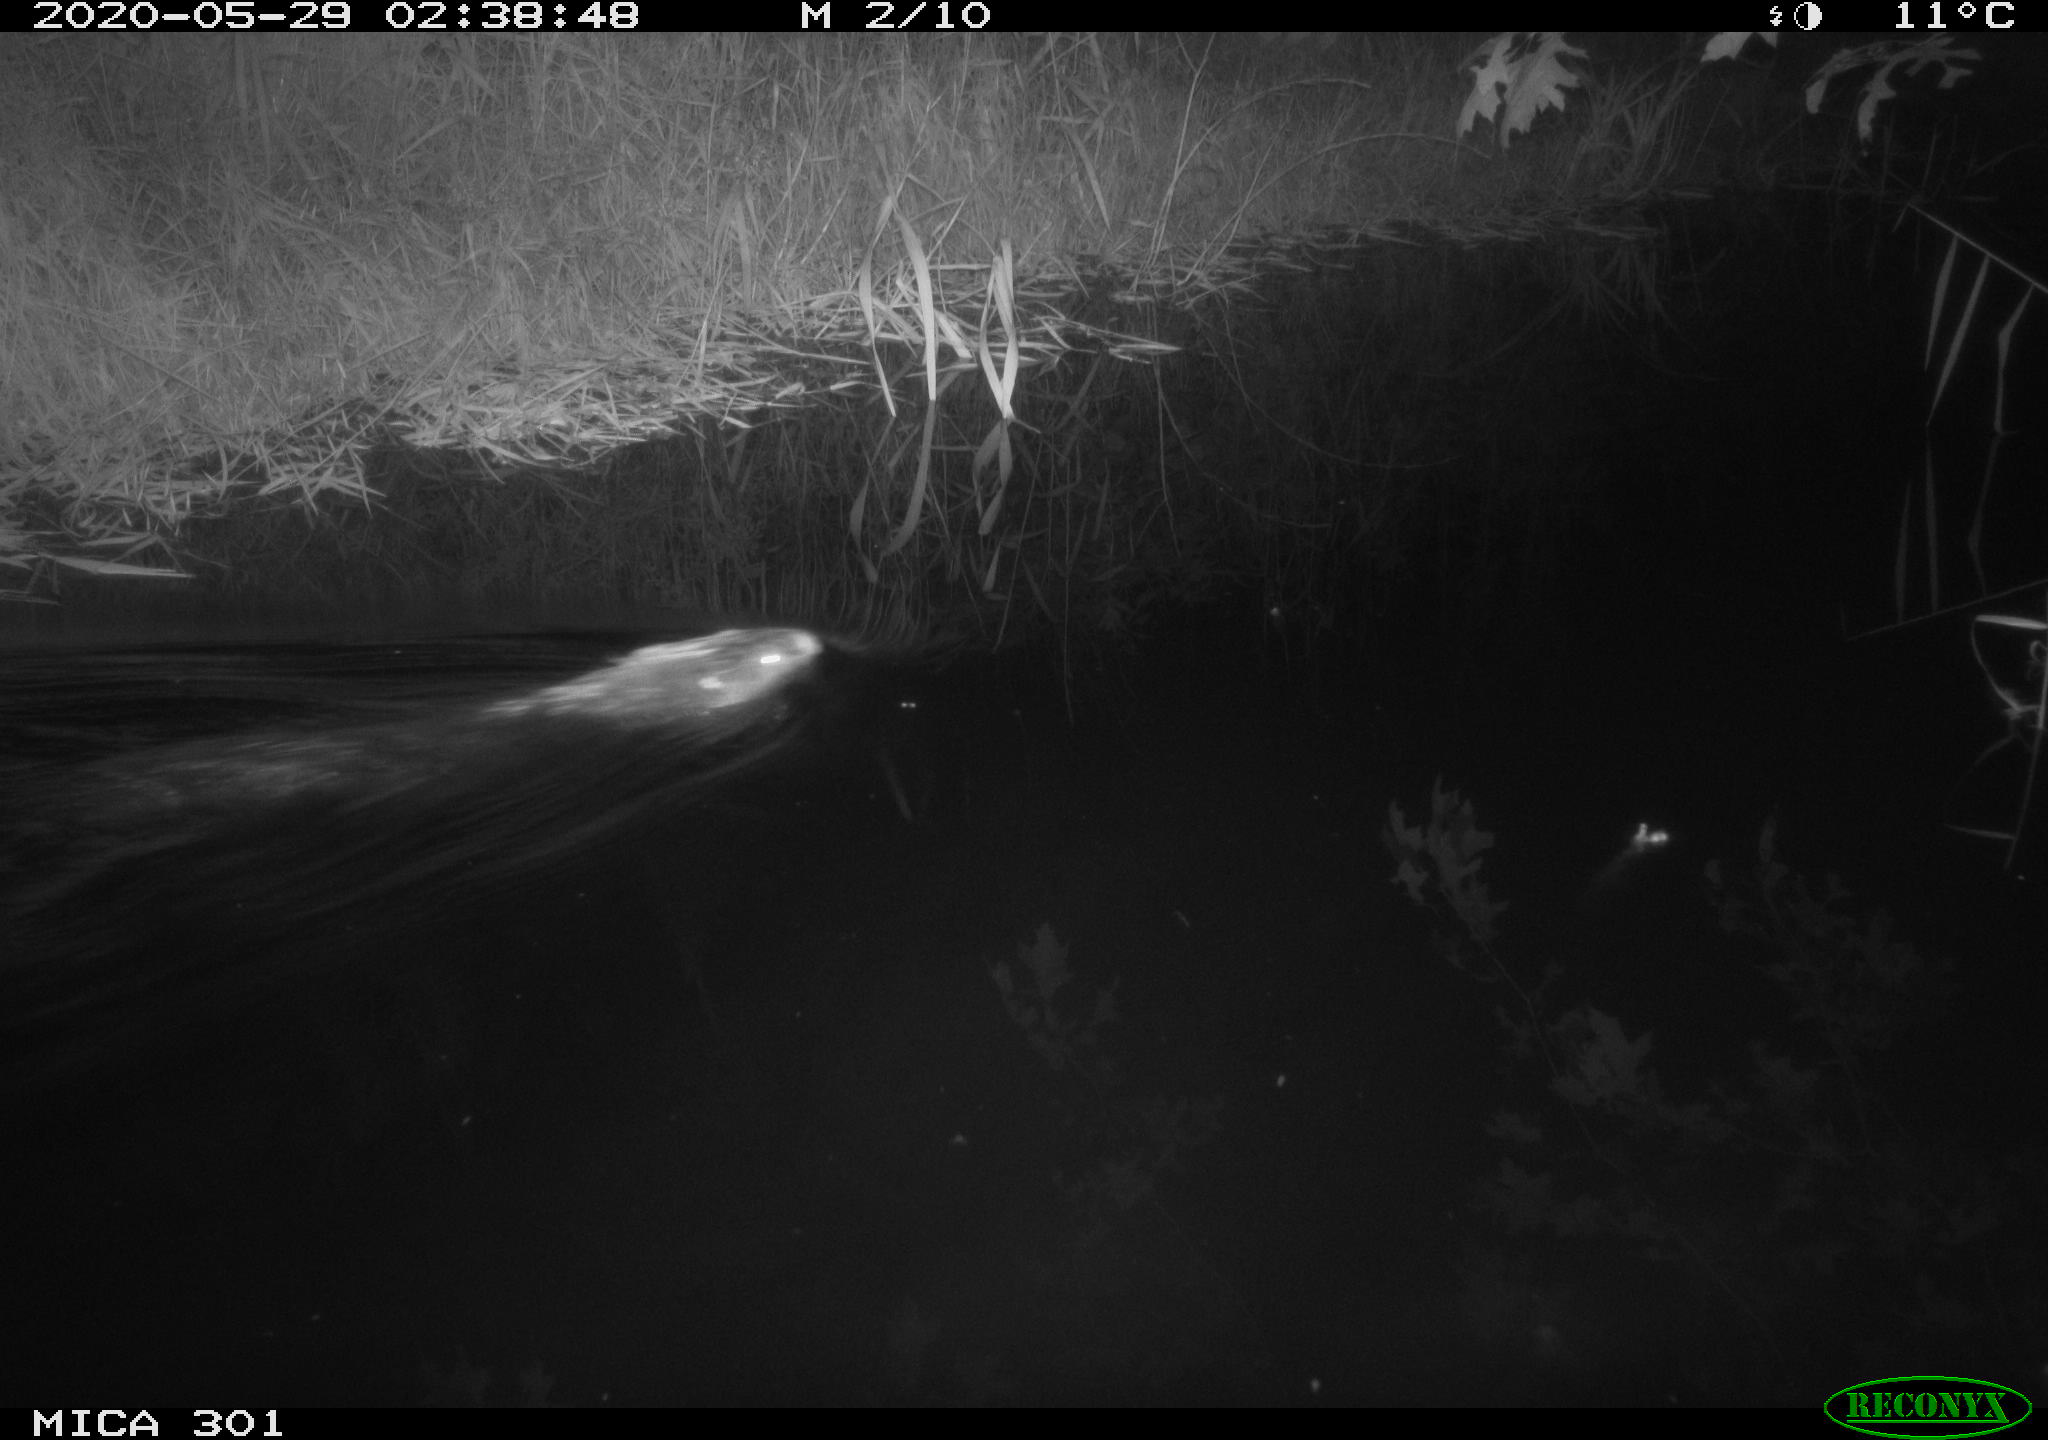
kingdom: Animalia
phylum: Chordata
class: Mammalia
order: Rodentia
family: Castoridae
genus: Castor
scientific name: Castor fiber
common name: Eurasian beaver
